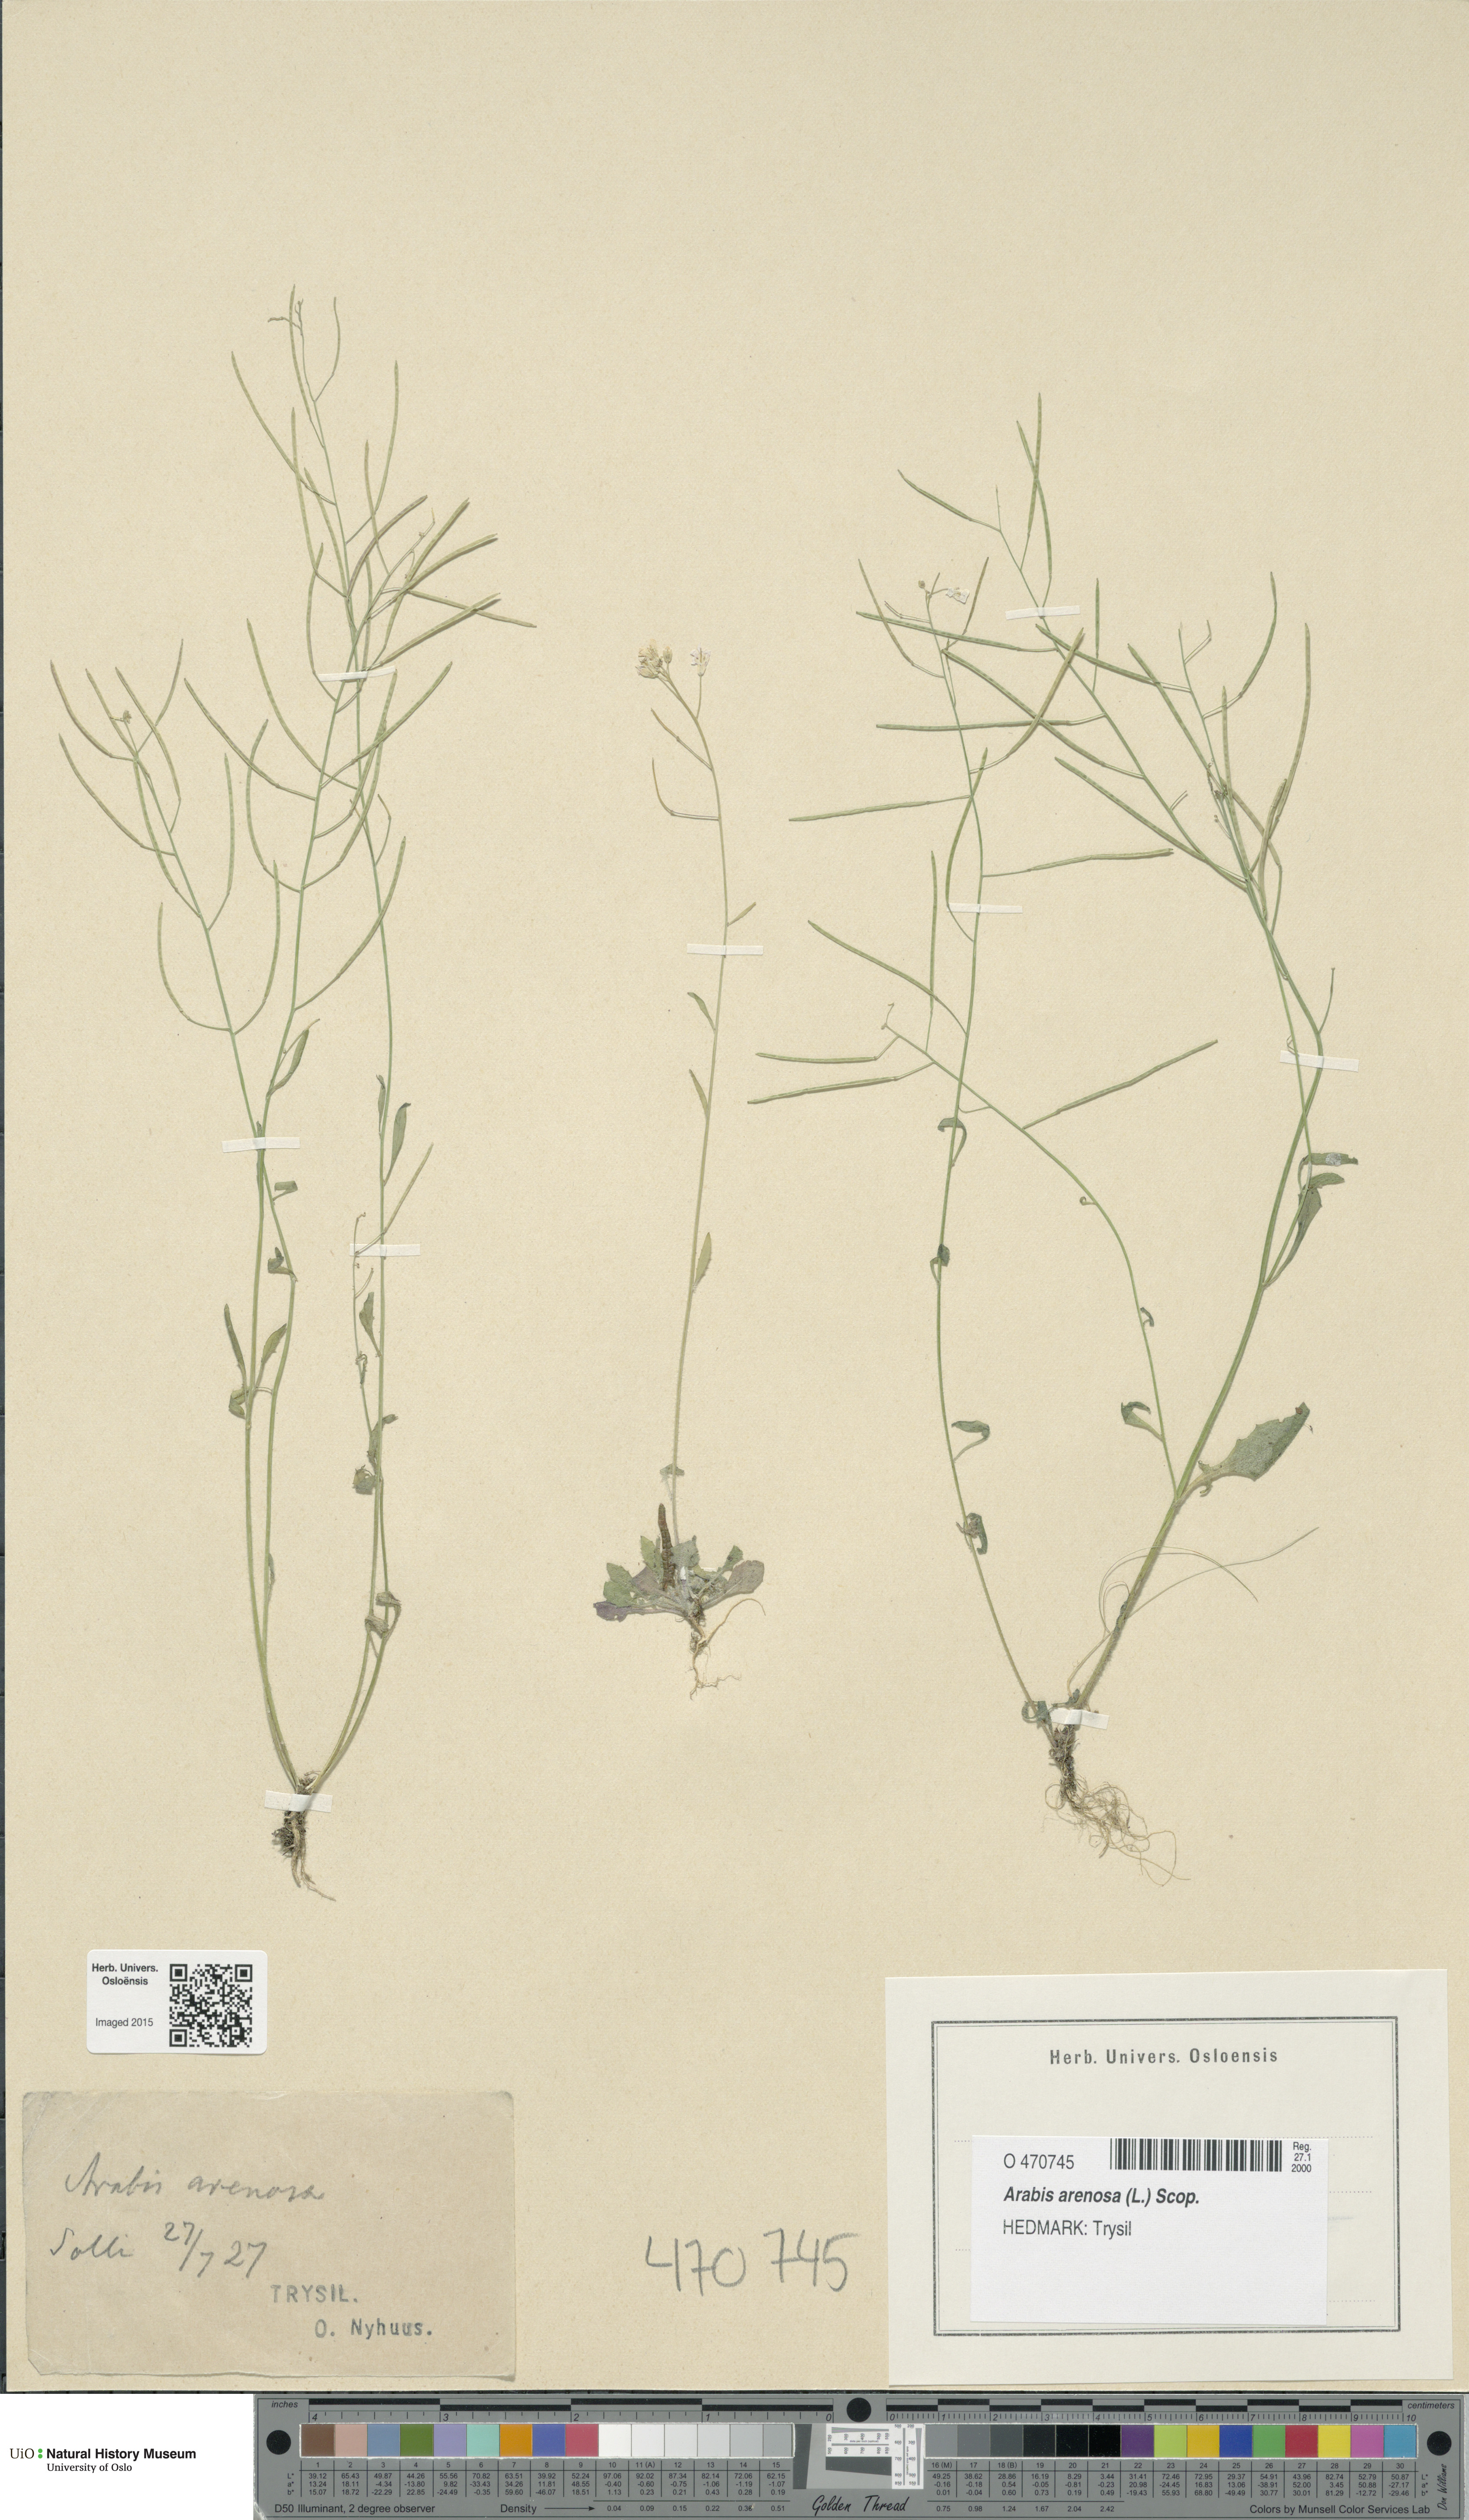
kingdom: Plantae
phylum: Tracheophyta
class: Magnoliopsida
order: Brassicales
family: Brassicaceae
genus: Arabidopsis
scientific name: Arabidopsis arenosa
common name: Sand rock-cress
